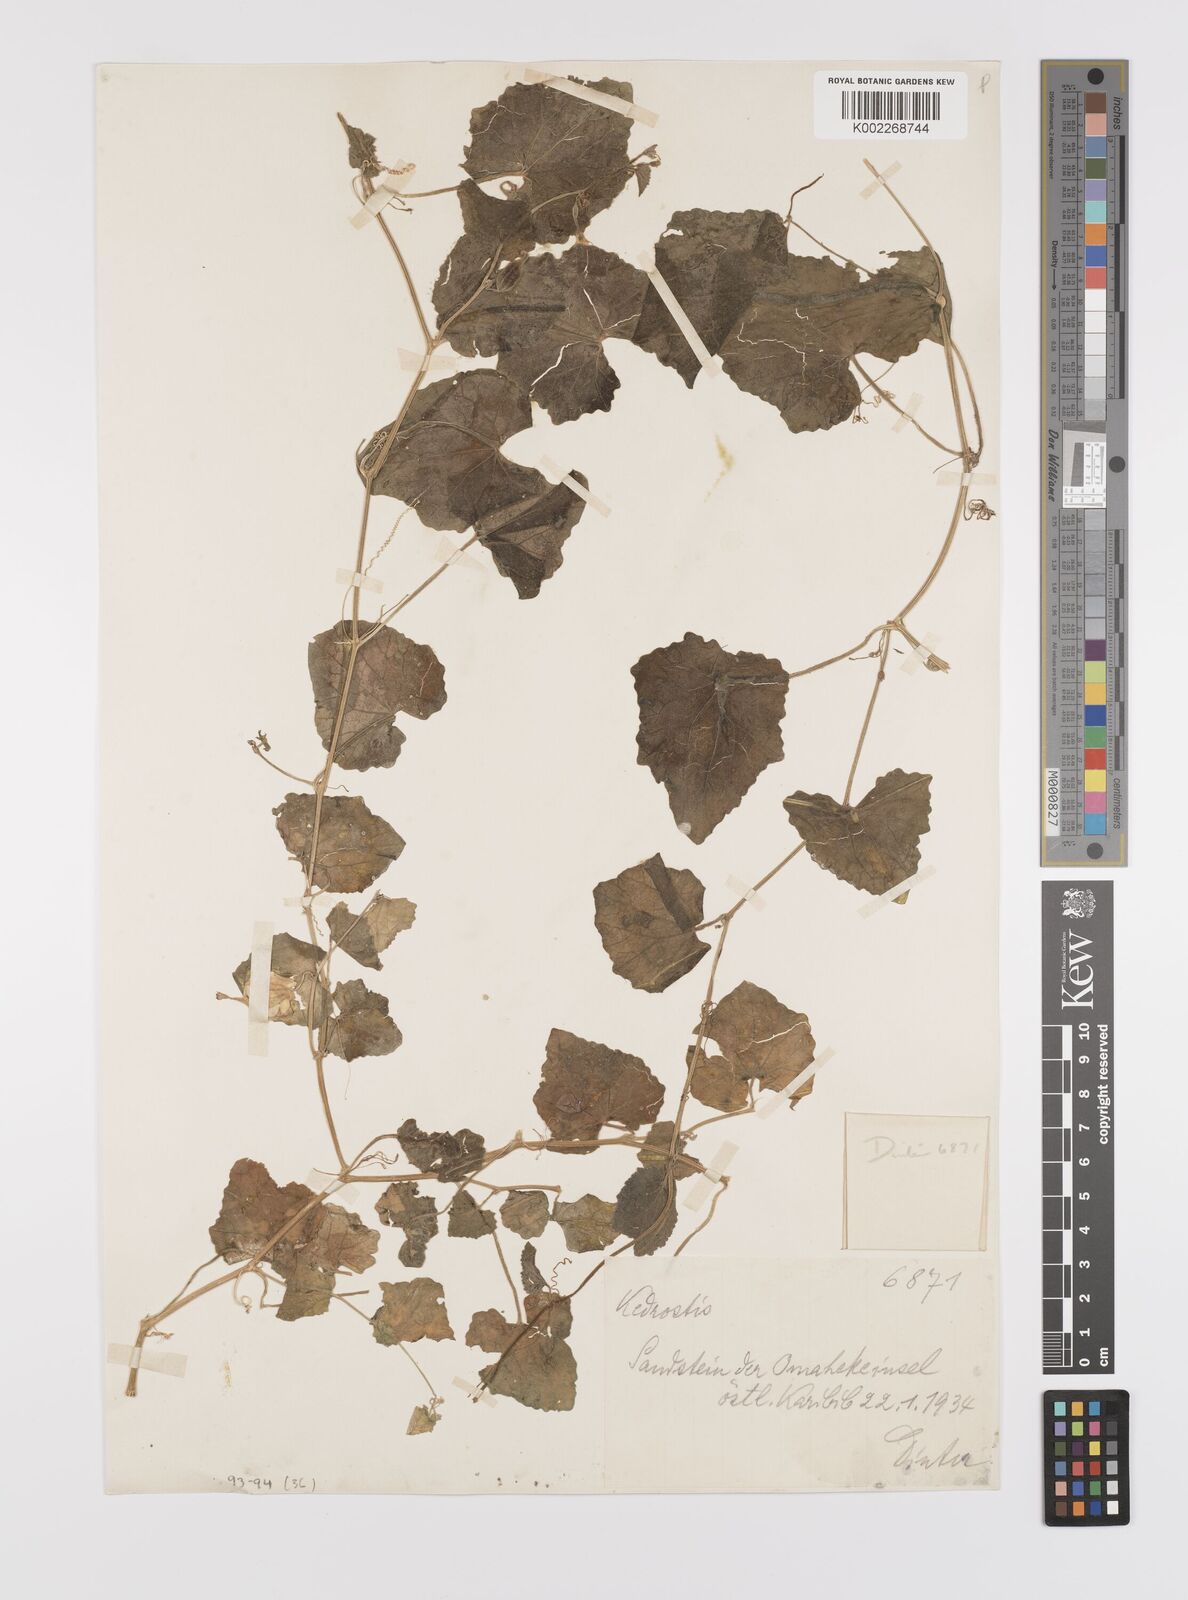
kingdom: Plantae
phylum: Tracheophyta
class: Magnoliopsida
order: Cucurbitales
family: Cucurbitaceae
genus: Cucumis
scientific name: Cucumis cinereus
